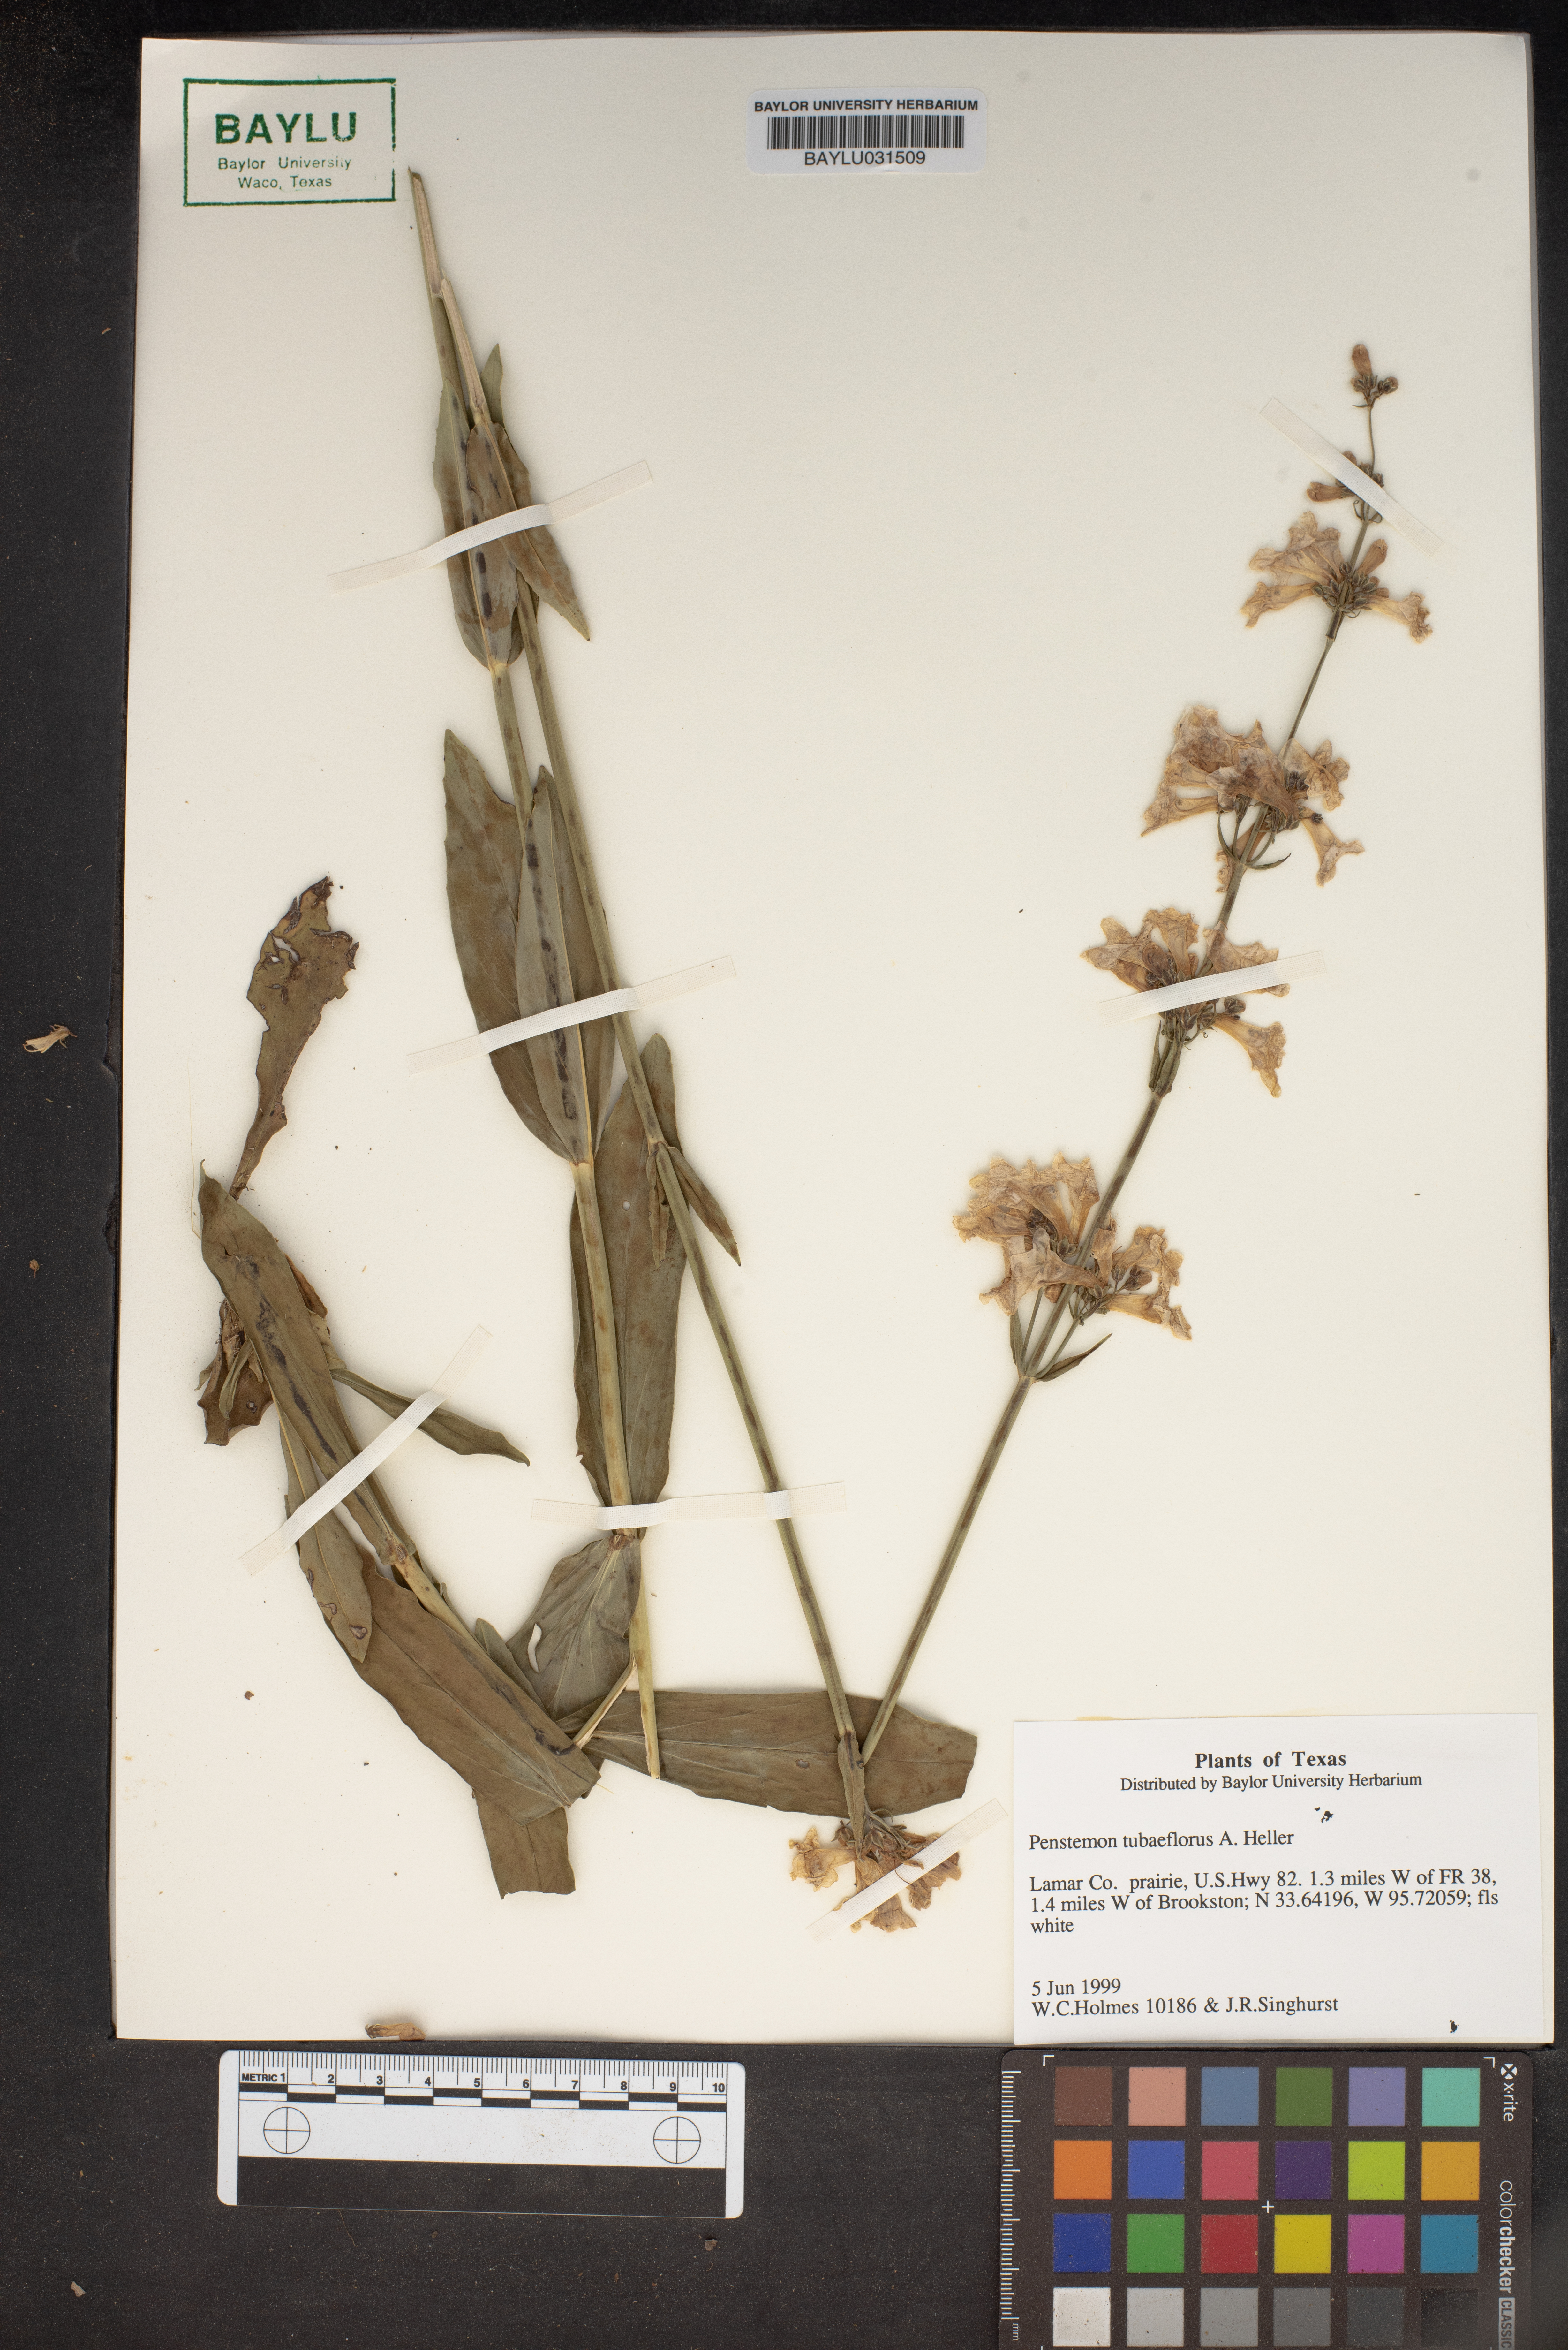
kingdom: Plantae
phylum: Tracheophyta
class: Magnoliopsida
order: Lamiales
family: Plantaginaceae
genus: Penstemon
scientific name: Penstemon tubaeflorus
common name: White wand beardtongue
